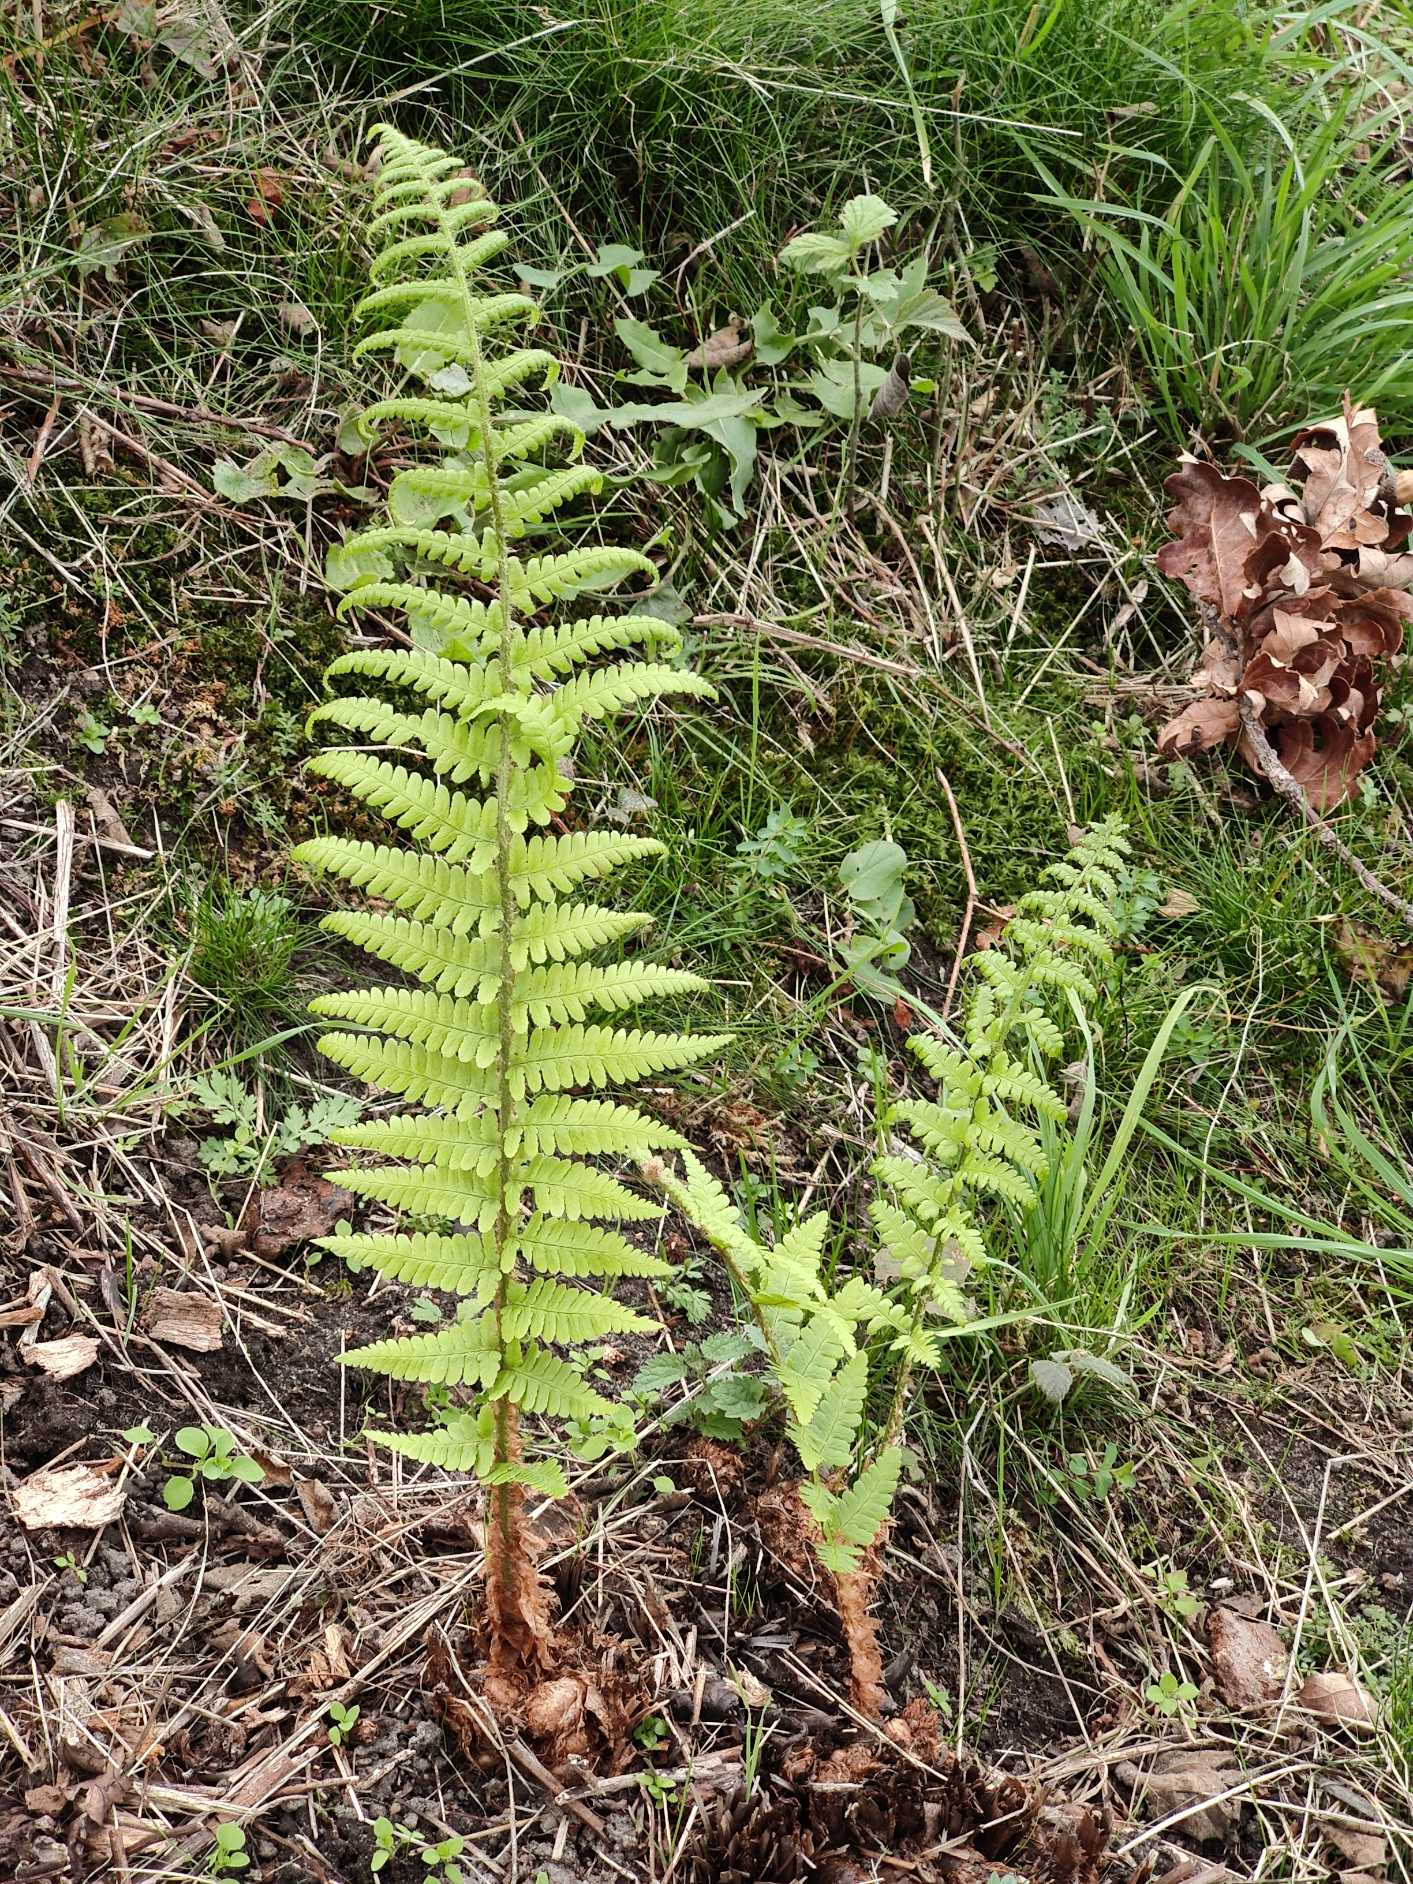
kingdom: Plantae
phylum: Tracheophyta
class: Polypodiopsida
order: Polypodiales
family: Dryopteridaceae
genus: Dryopteris
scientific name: Dryopteris filix-mas
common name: Almindelig mangeløv
